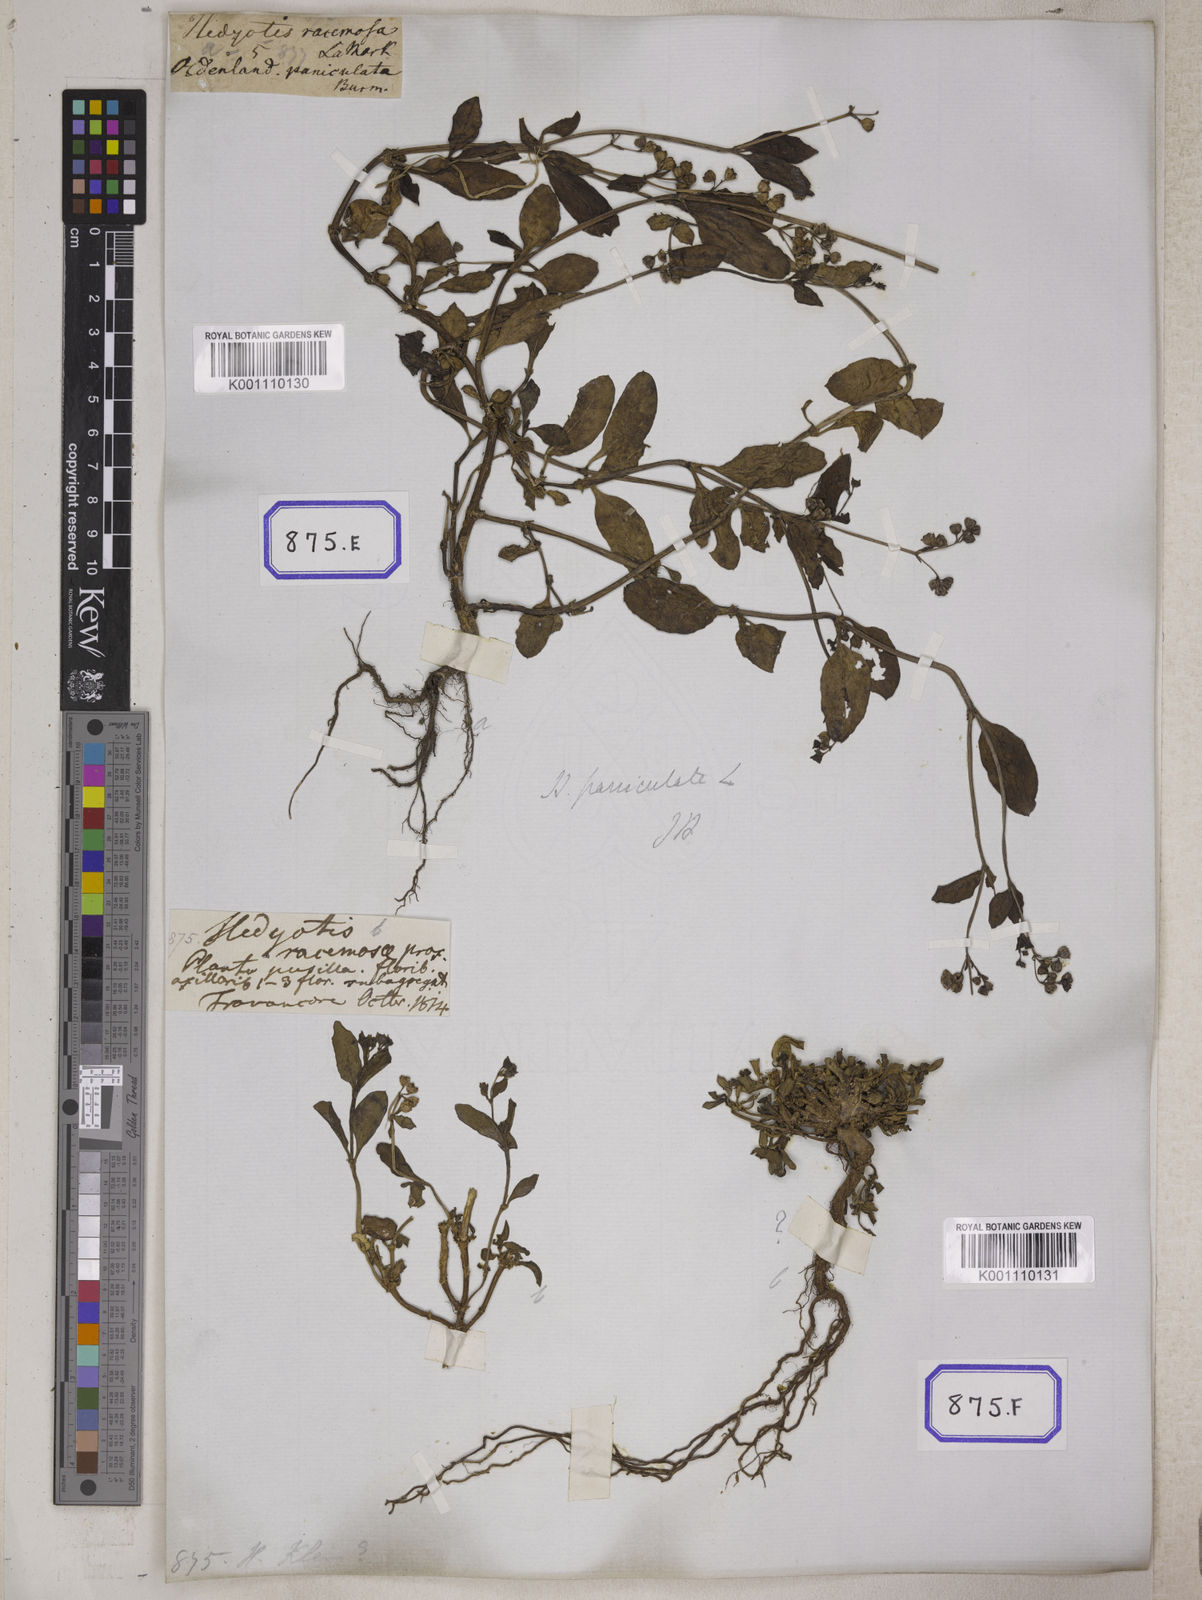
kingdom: Plantae
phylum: Tracheophyta
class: Magnoliopsida
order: Gentianales
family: Rubiaceae
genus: Leptopetalum
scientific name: Leptopetalum racemosum
